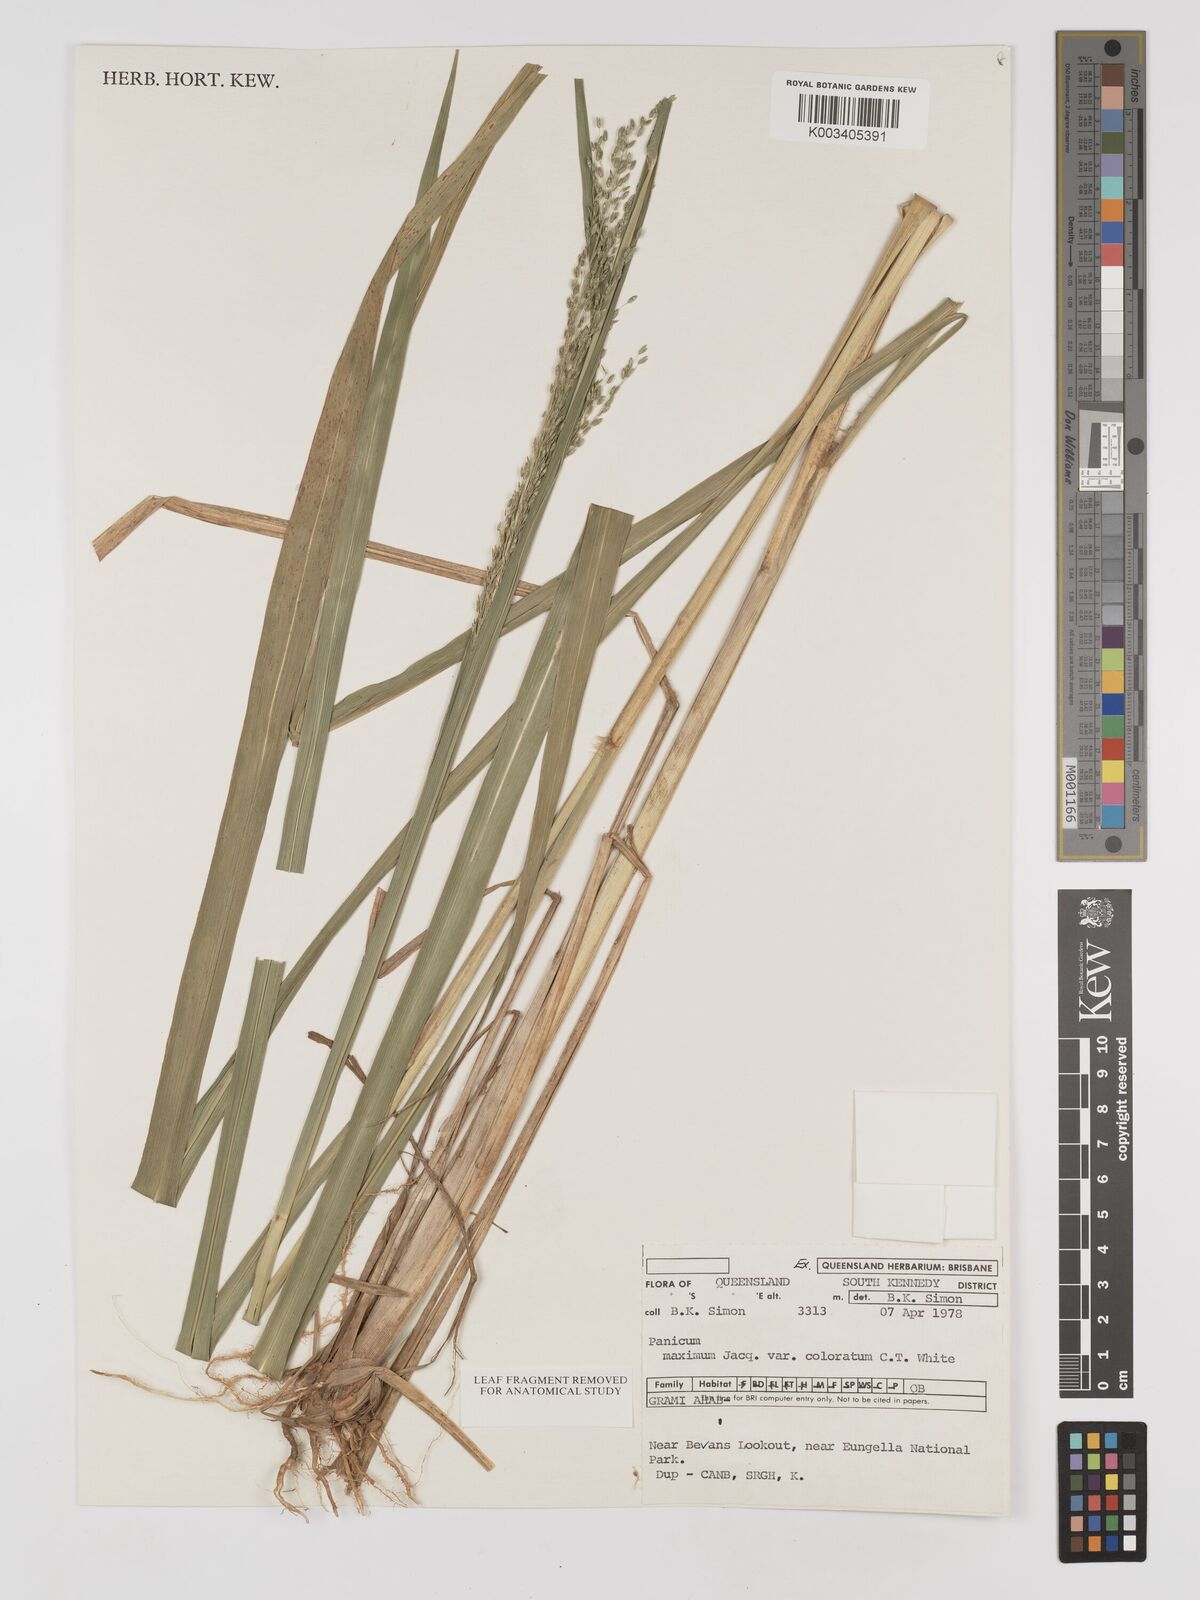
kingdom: Plantae
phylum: Tracheophyta
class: Liliopsida
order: Poales
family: Poaceae
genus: Megathyrsus
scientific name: Megathyrsus maximus
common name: Guineagrass
